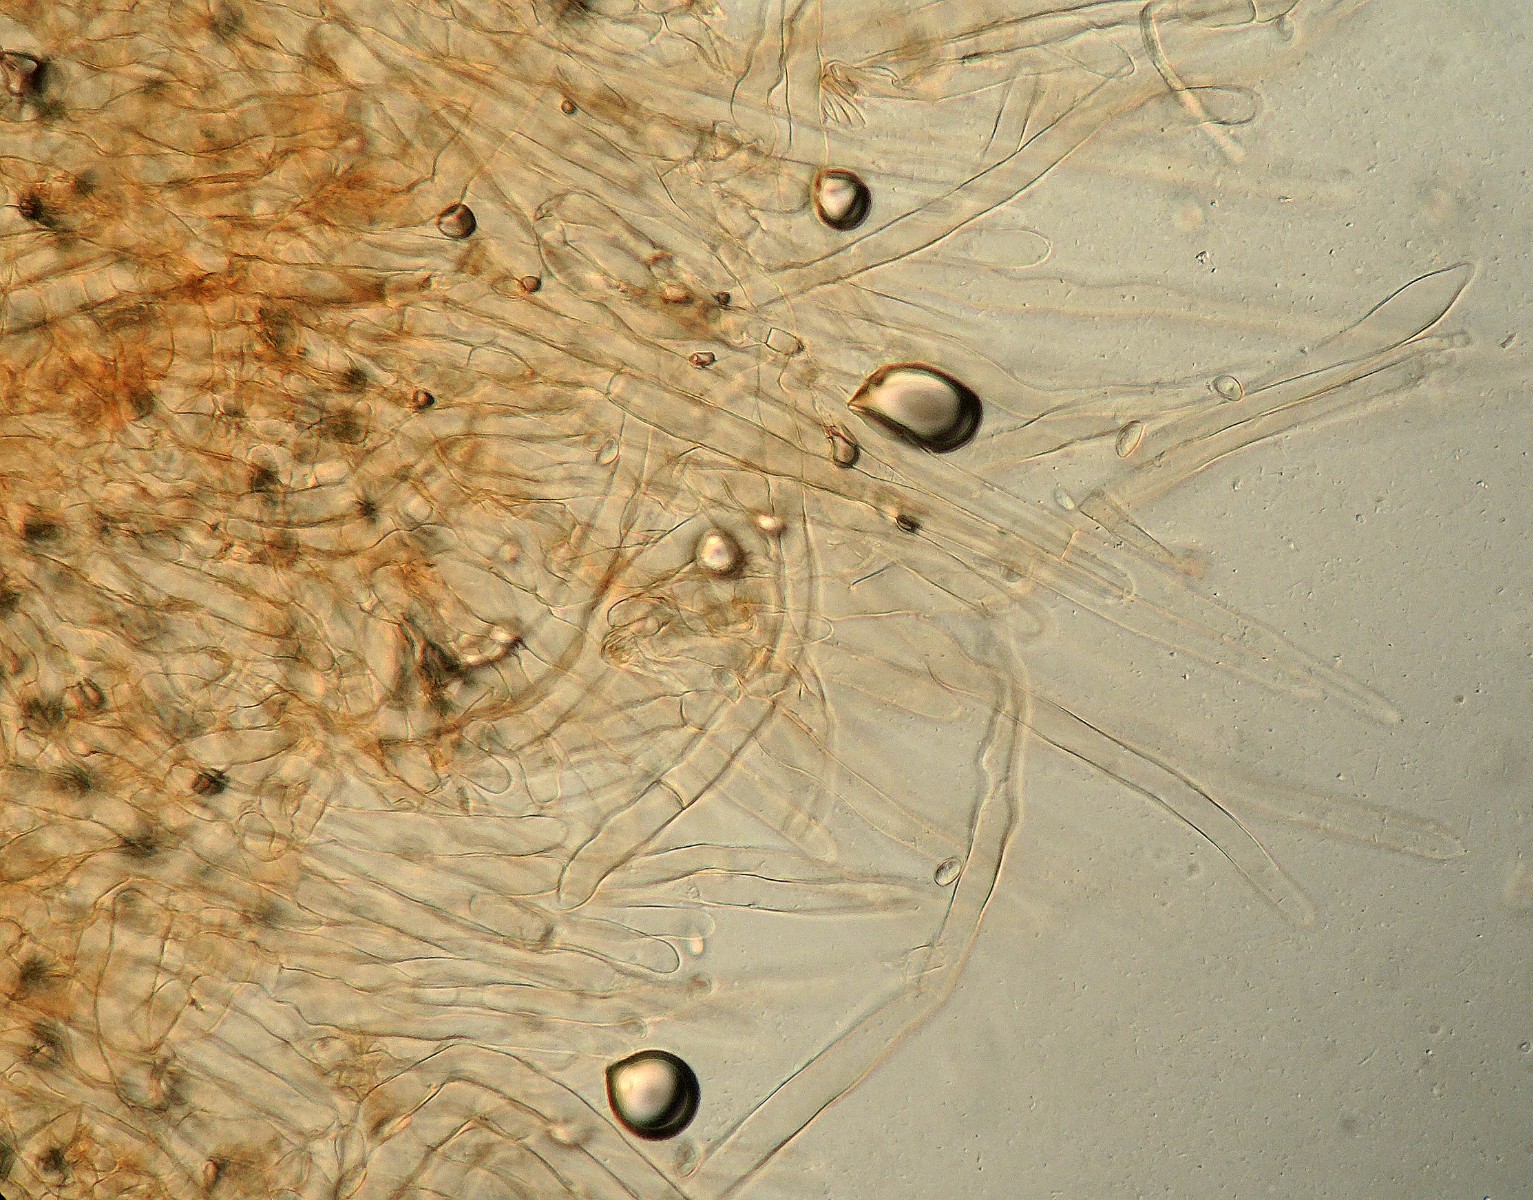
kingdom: Fungi
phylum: Basidiomycota
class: Agaricomycetes
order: Agaricales
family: Agaricaceae
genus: Lepiota
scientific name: Lepiota subgracilis
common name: elegant parasolhat
